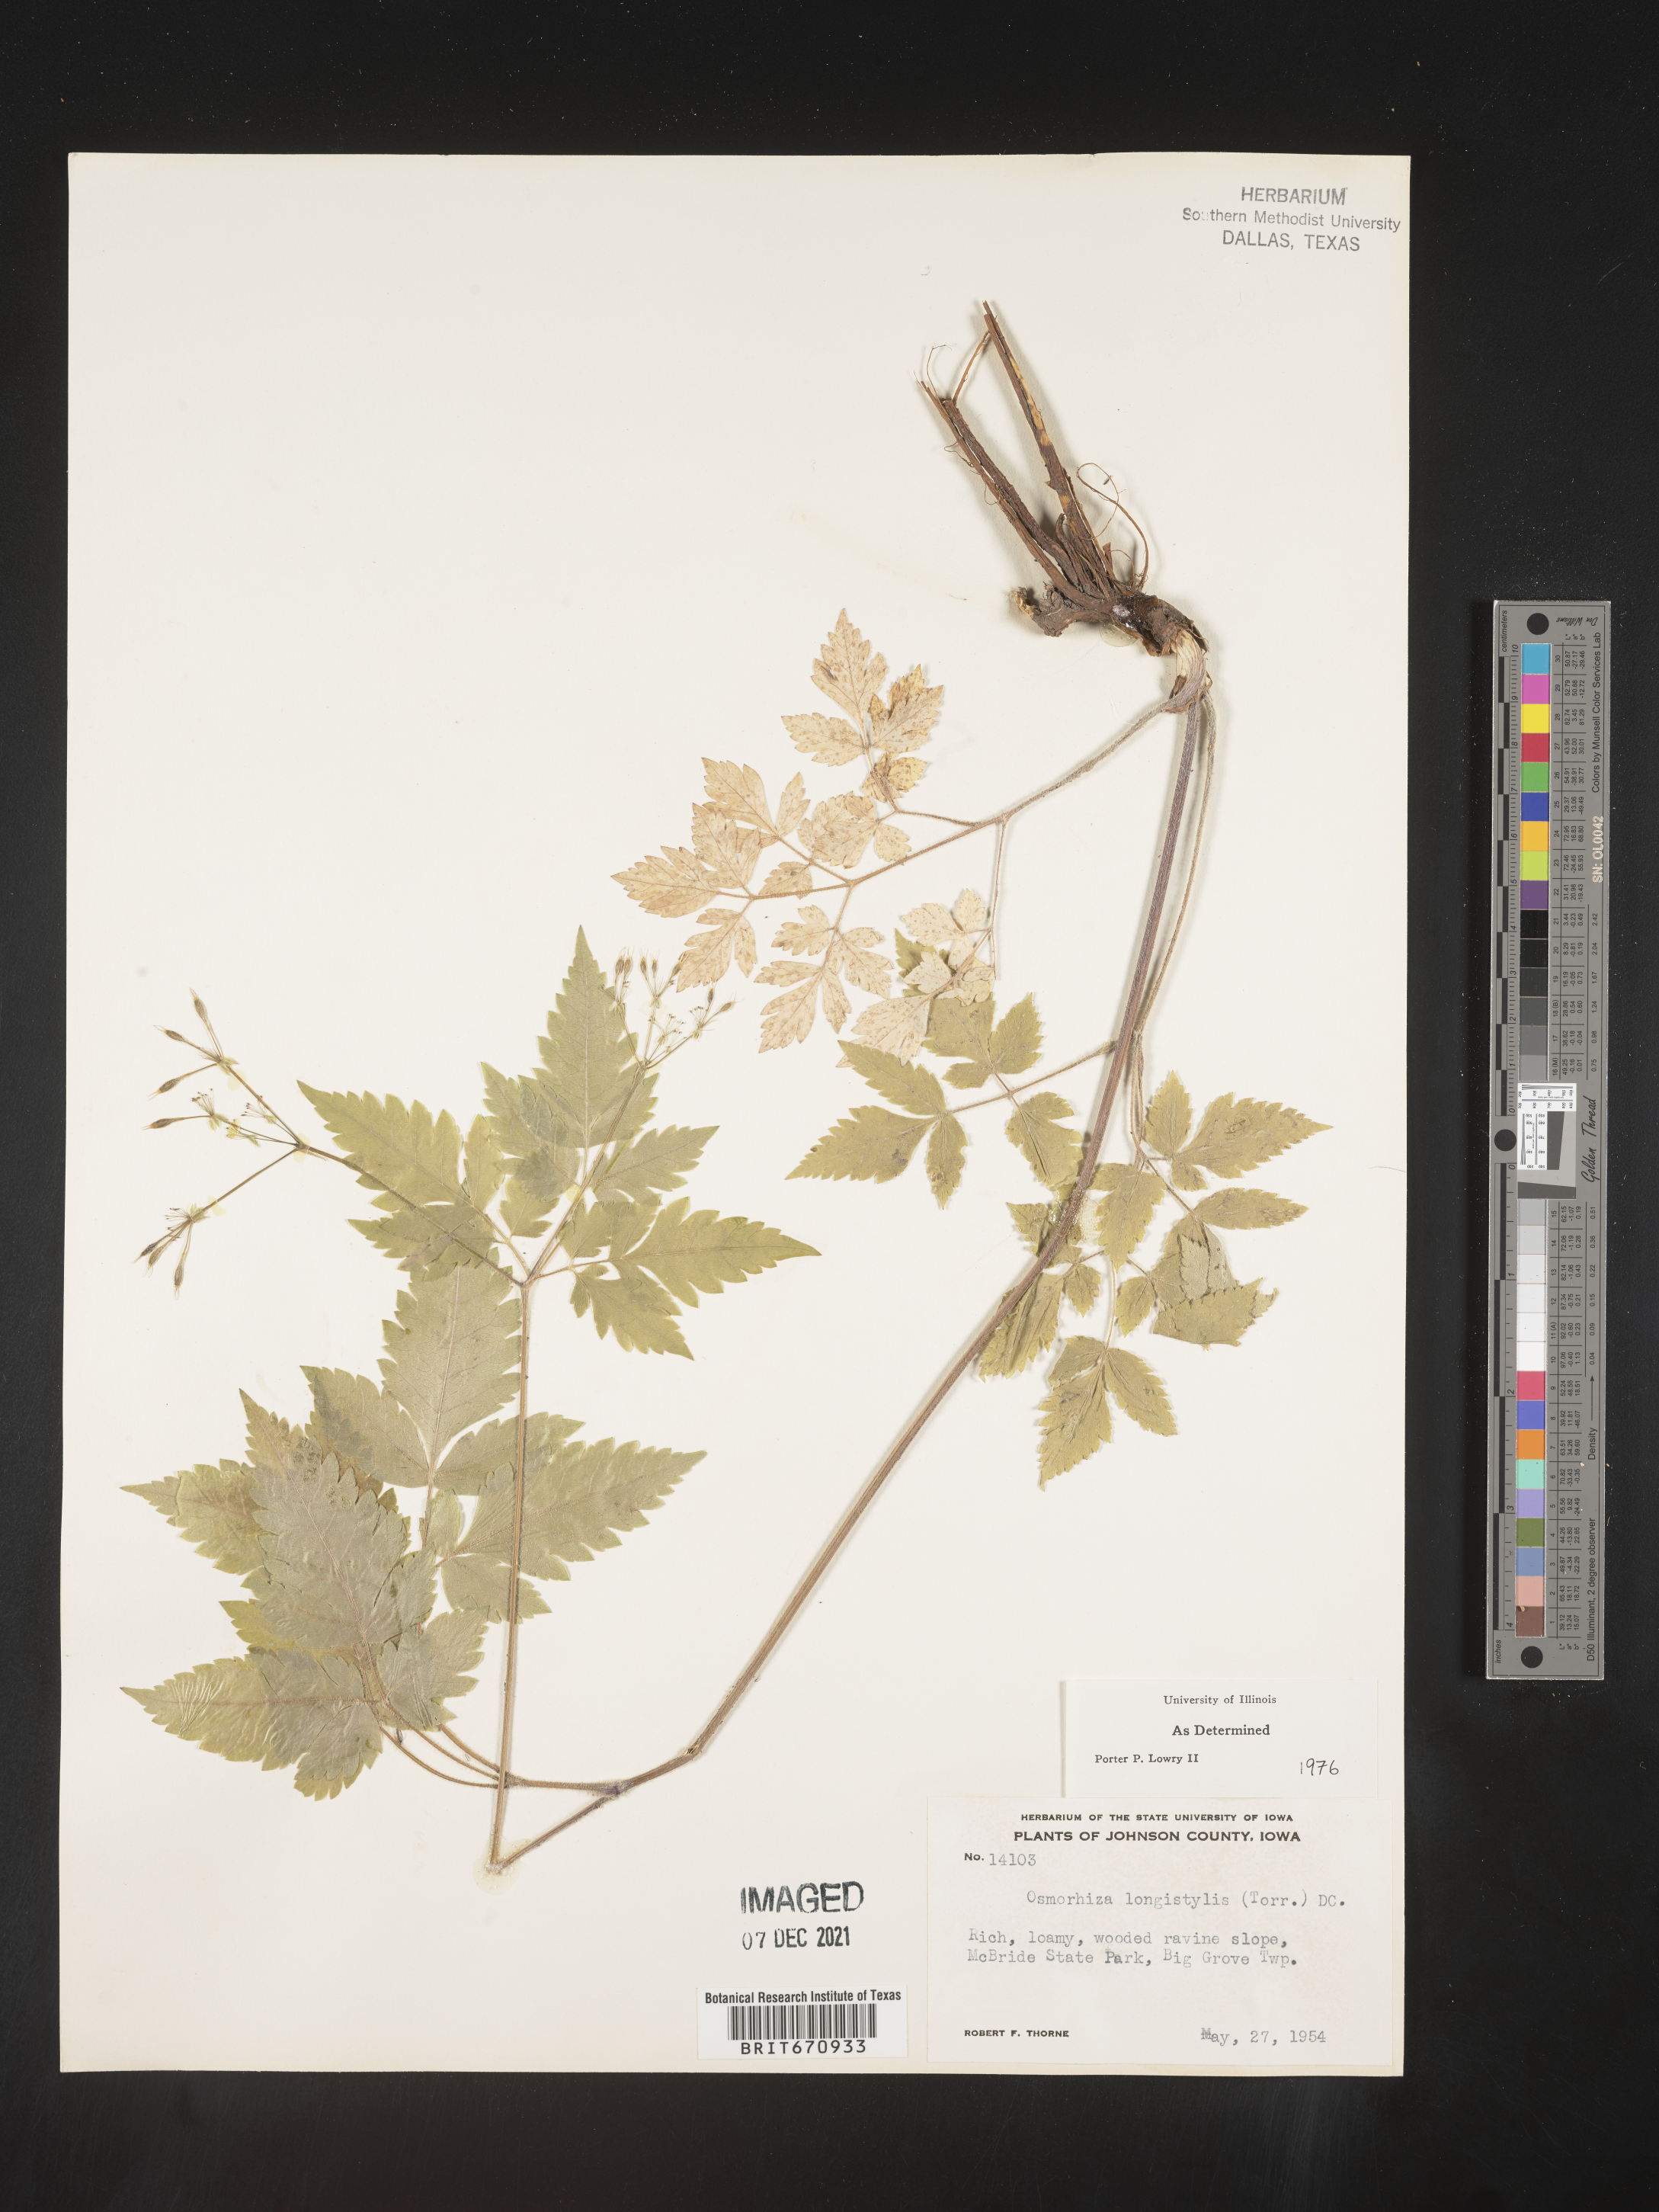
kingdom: Plantae
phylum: Tracheophyta
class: Magnoliopsida
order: Apiales
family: Apiaceae
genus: Osmorhiza
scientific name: Osmorhiza longistylis
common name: Smooth sweet cicely
